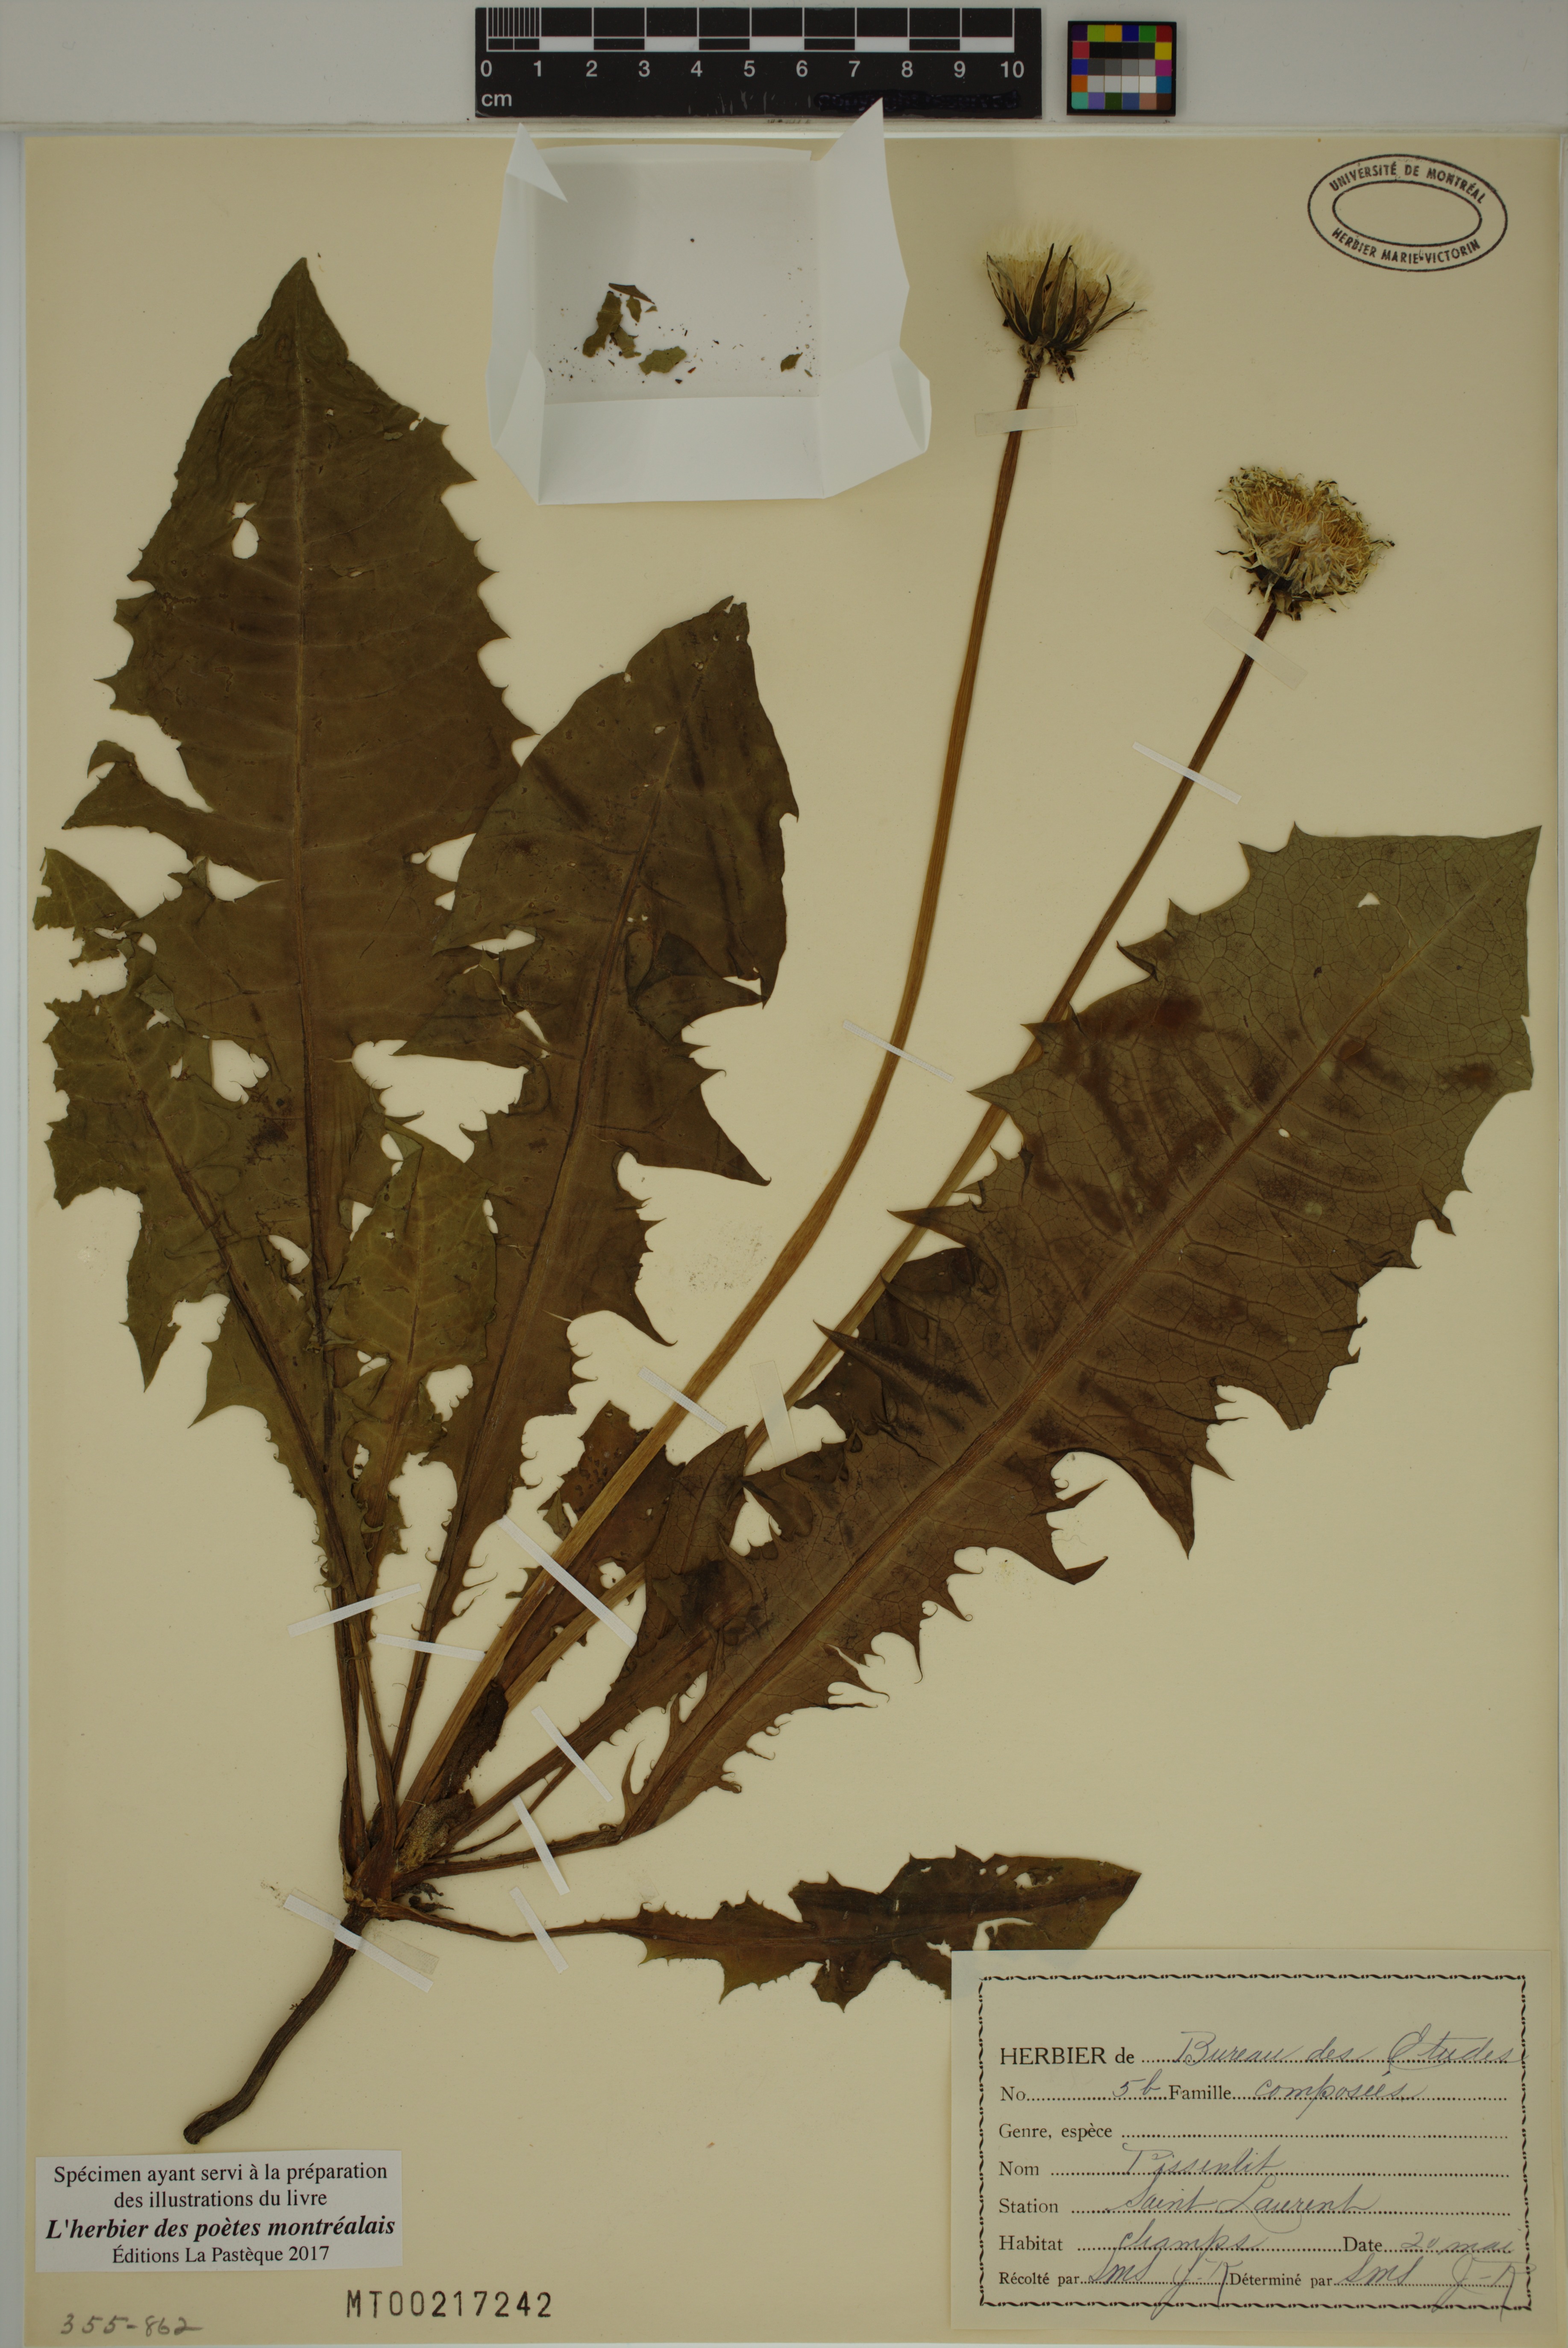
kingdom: Plantae
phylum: Tracheophyta
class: Magnoliopsida
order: Asterales
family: Asteraceae
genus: Taraxacum
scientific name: Taraxacum officinale
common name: Common dandelion
